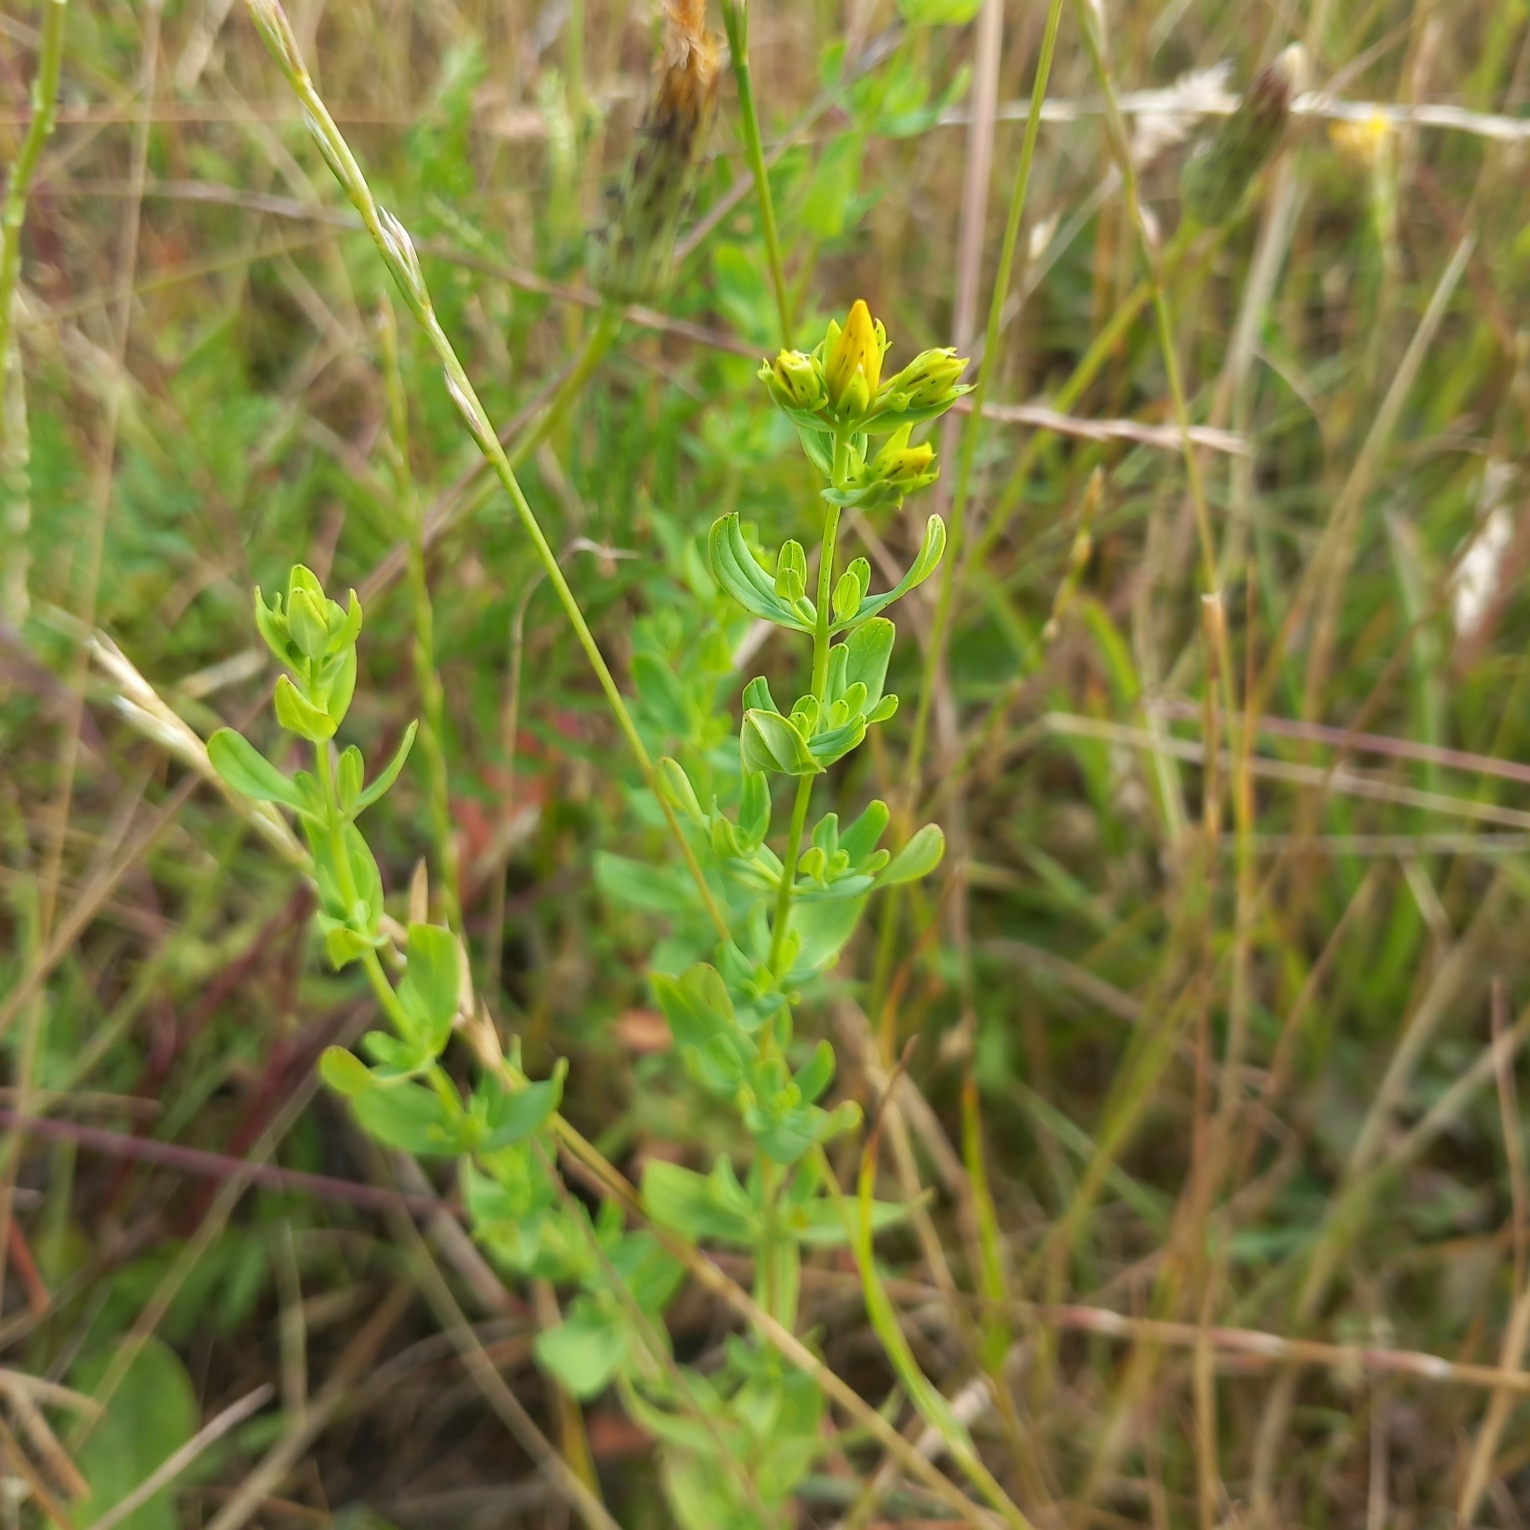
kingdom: Plantae
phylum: Tracheophyta
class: Magnoliopsida
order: Malpighiales
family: Hypericaceae
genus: Hypericum
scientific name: Hypericum perforatum
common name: Prikbladet perikon
